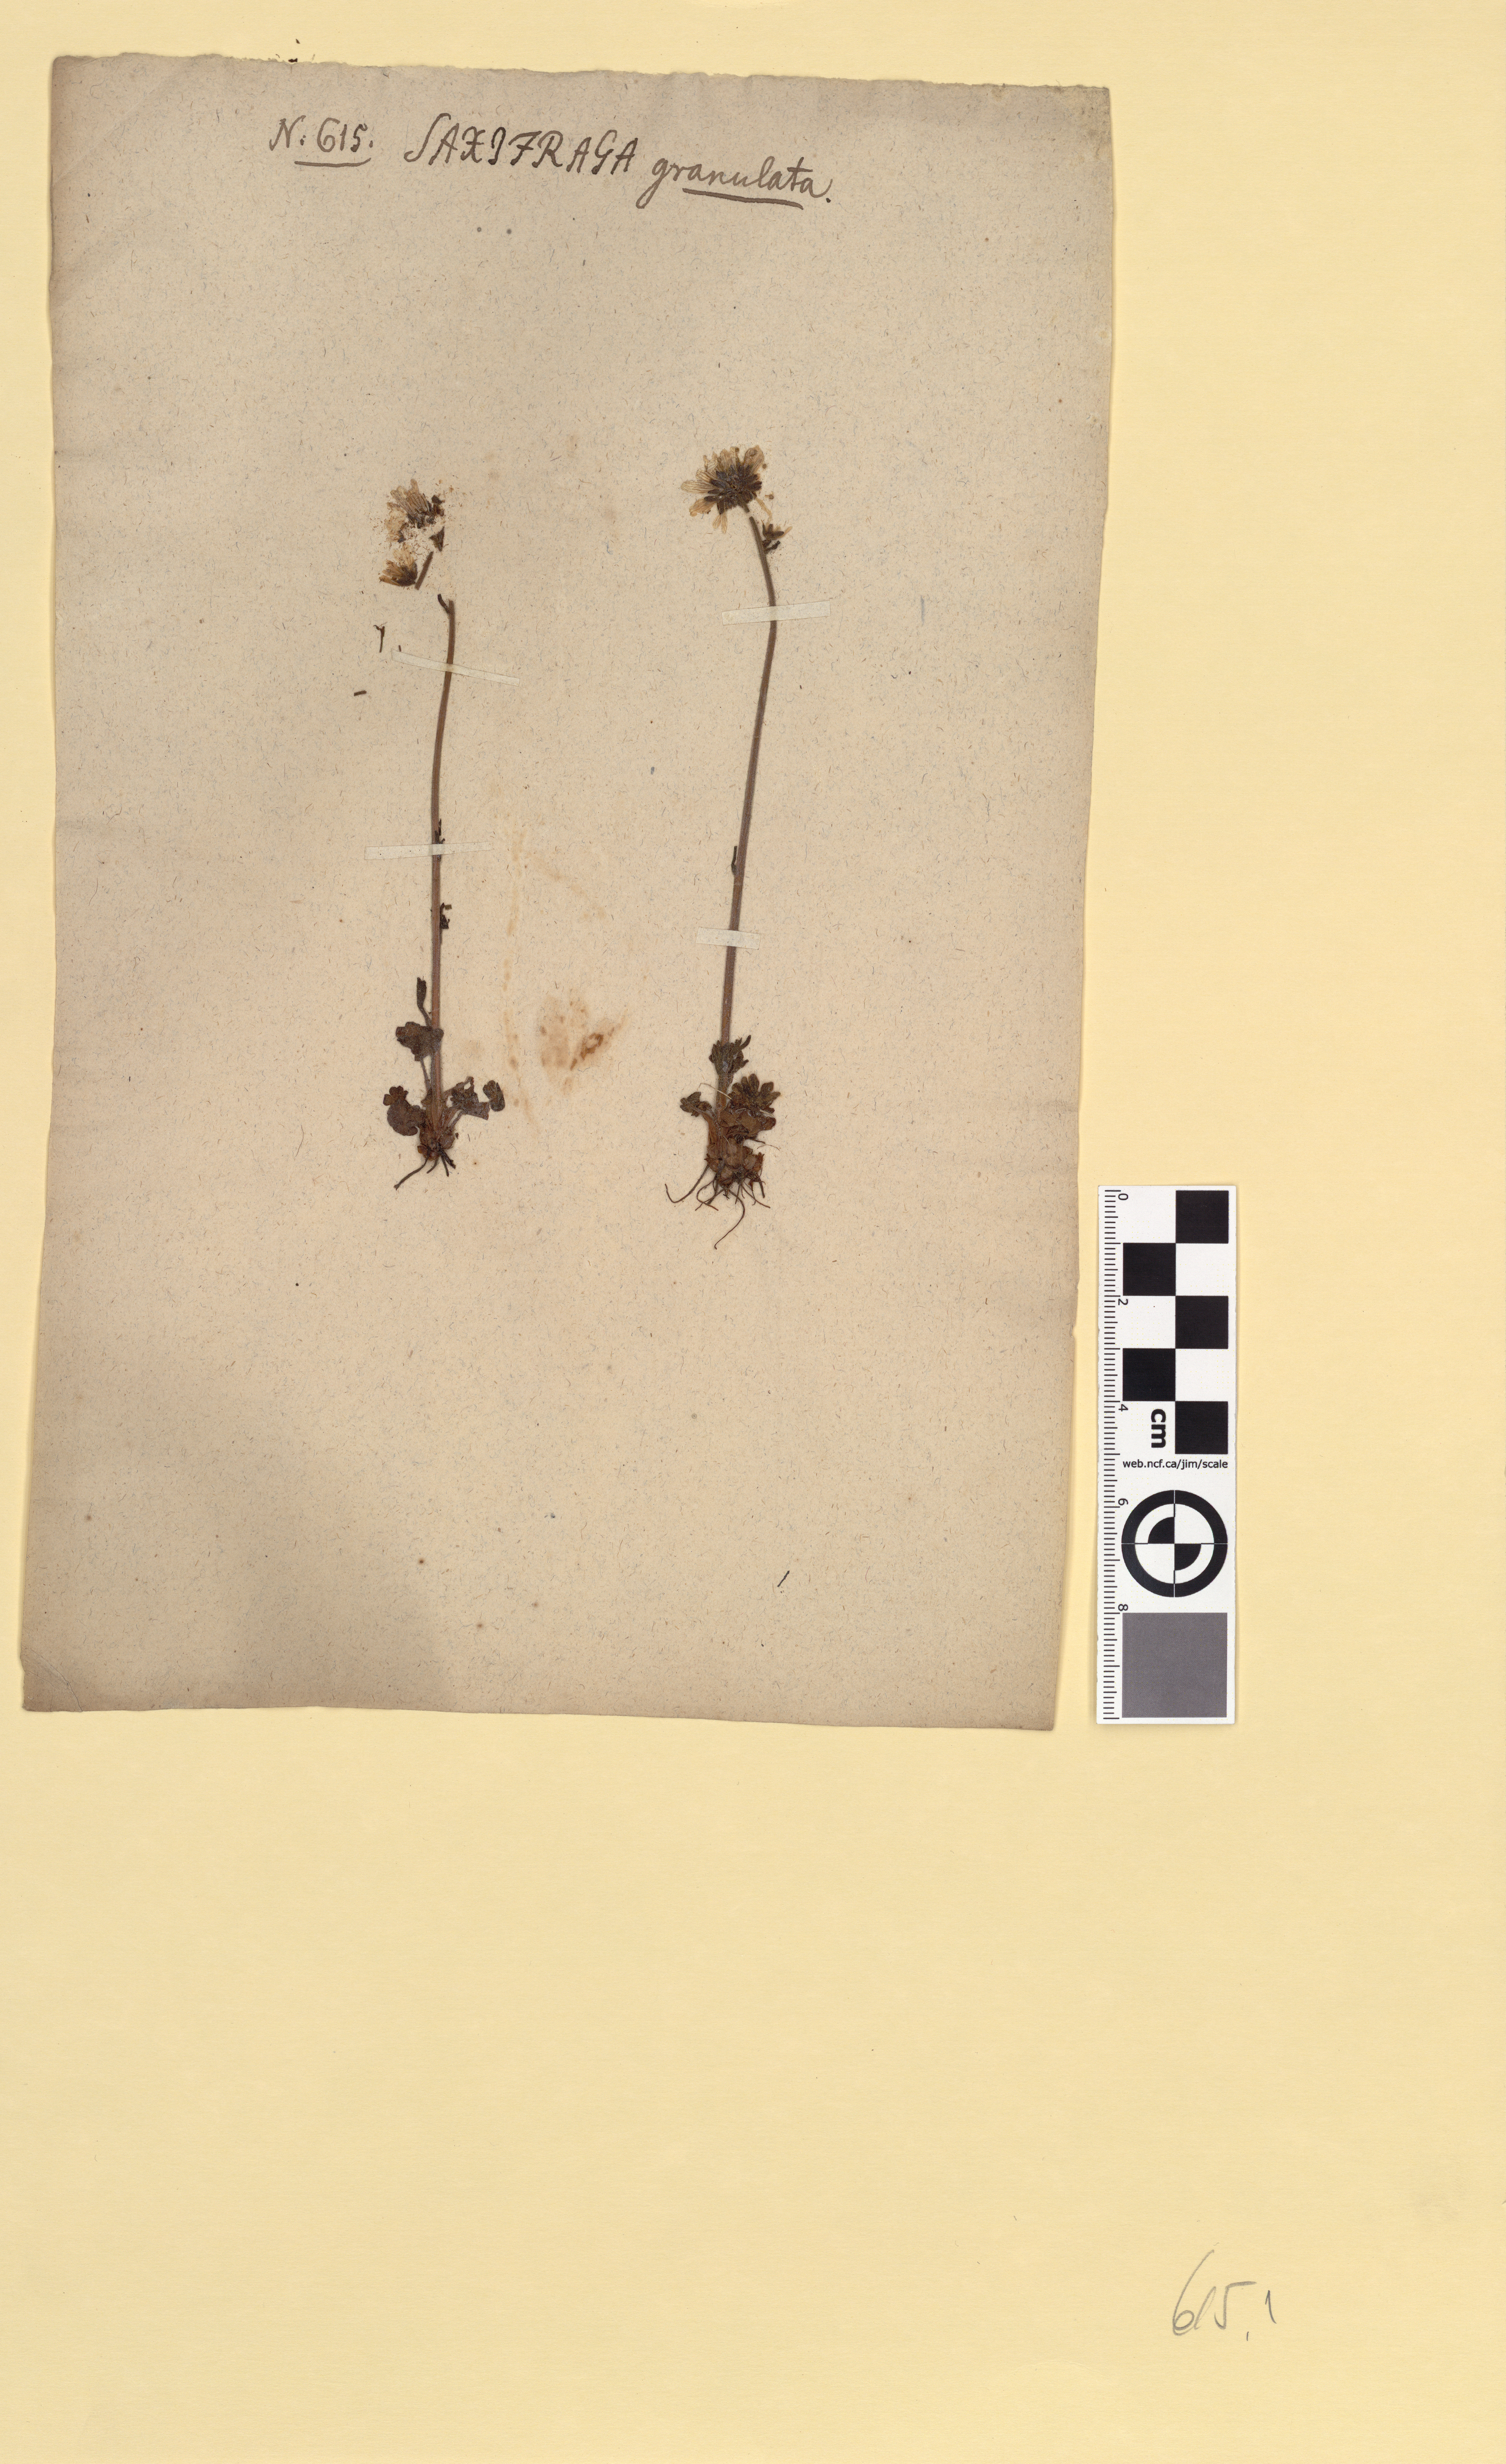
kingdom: Plantae
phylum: Tracheophyta
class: Magnoliopsida
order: Saxifragales
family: Saxifragaceae
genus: Saxifraga
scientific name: Saxifraga granulata
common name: Meadow saxifrage
